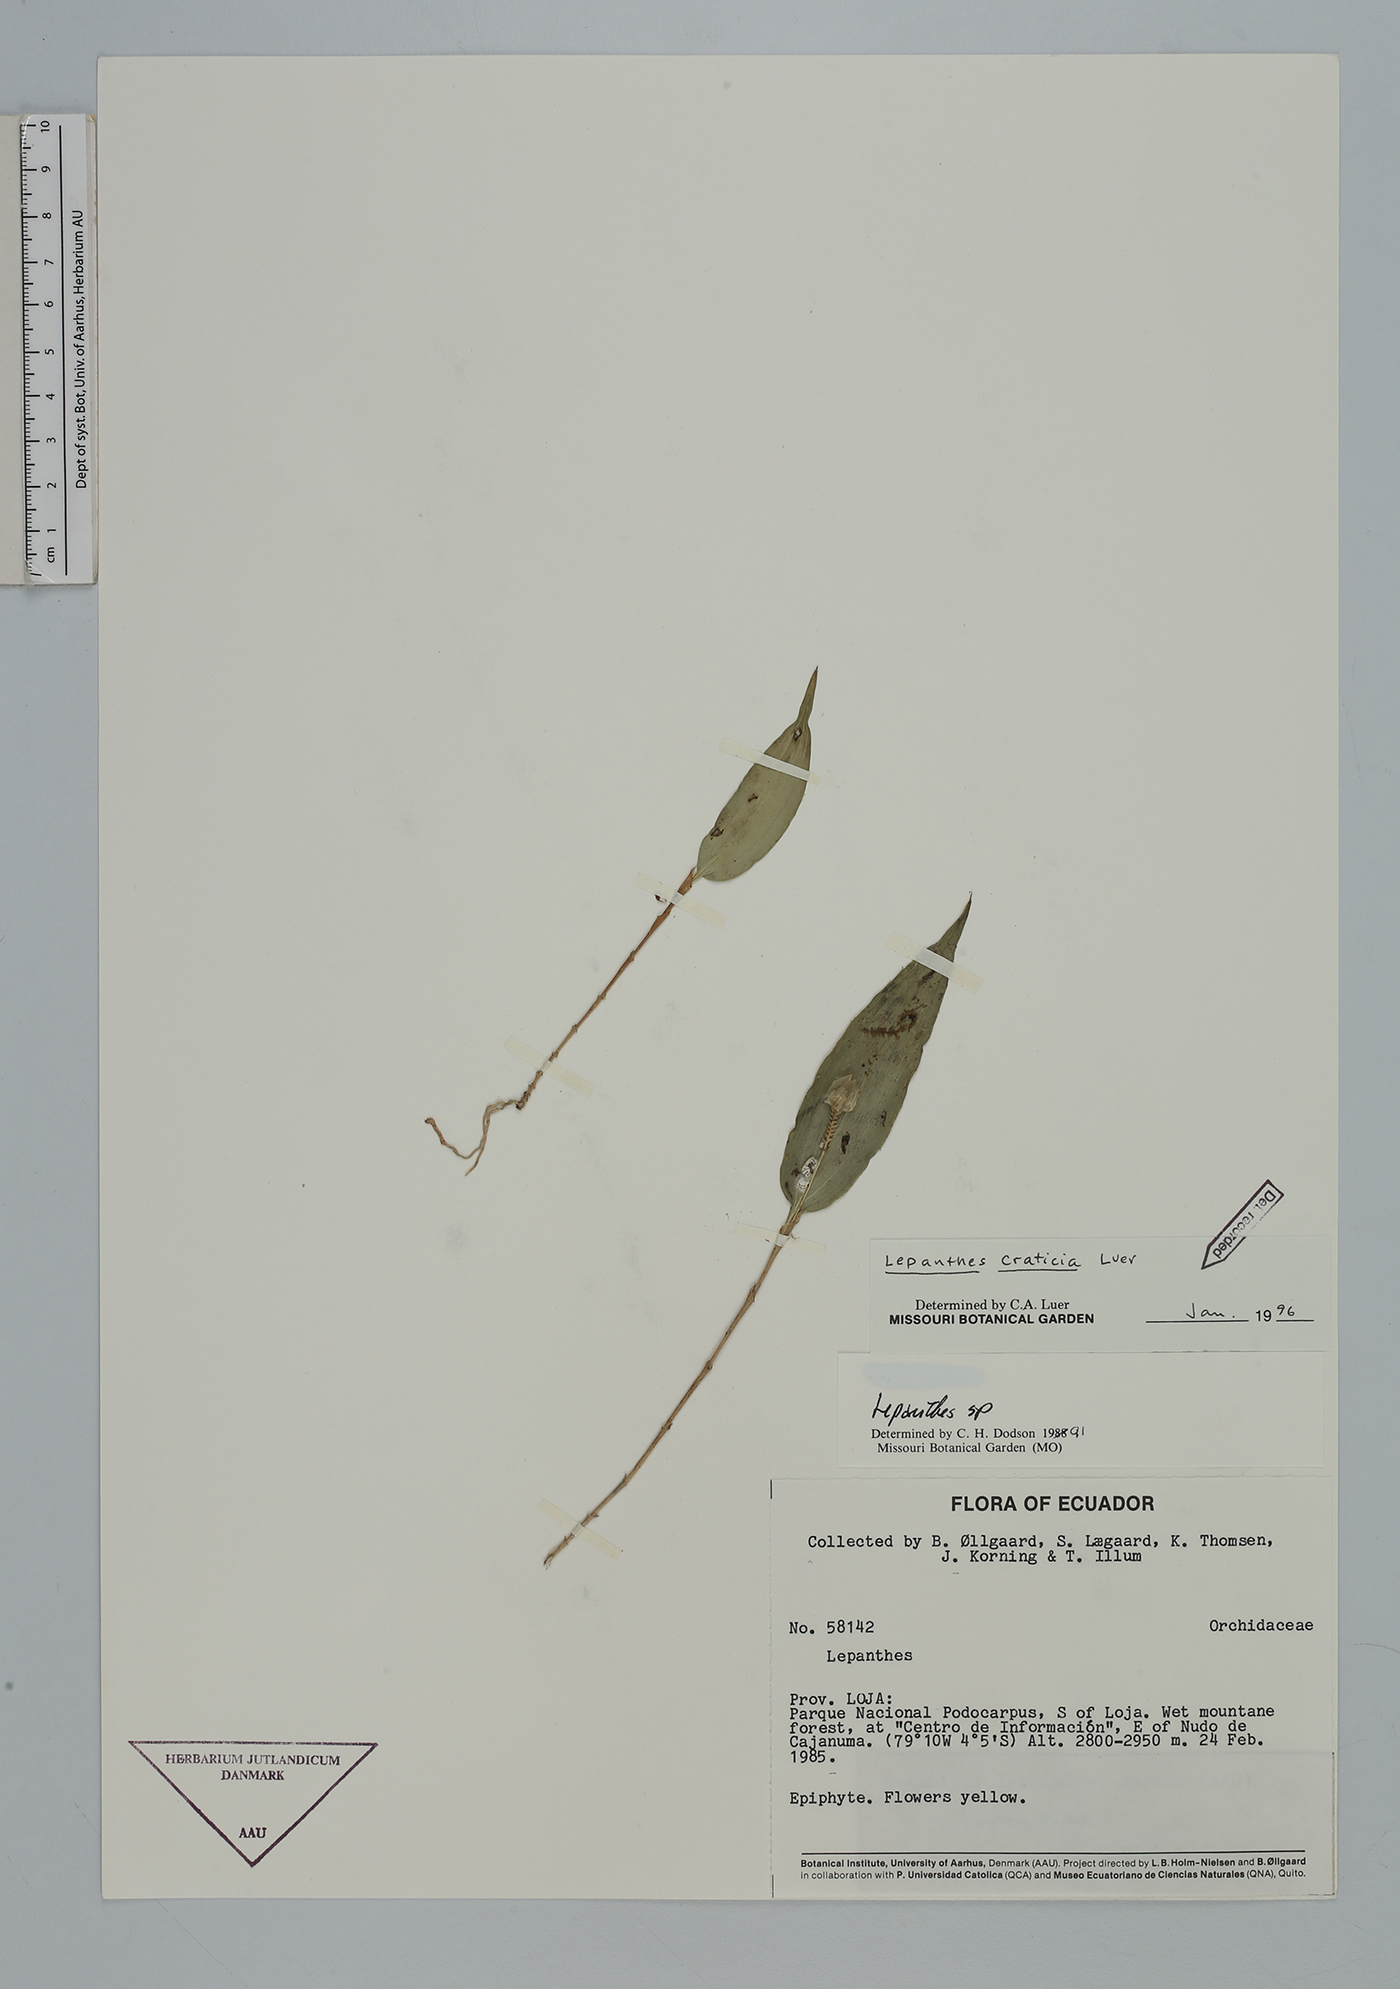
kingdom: Plantae
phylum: Tracheophyta
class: Liliopsida
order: Asparagales
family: Orchidaceae
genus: Lepanthes
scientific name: Lepanthes craticia
